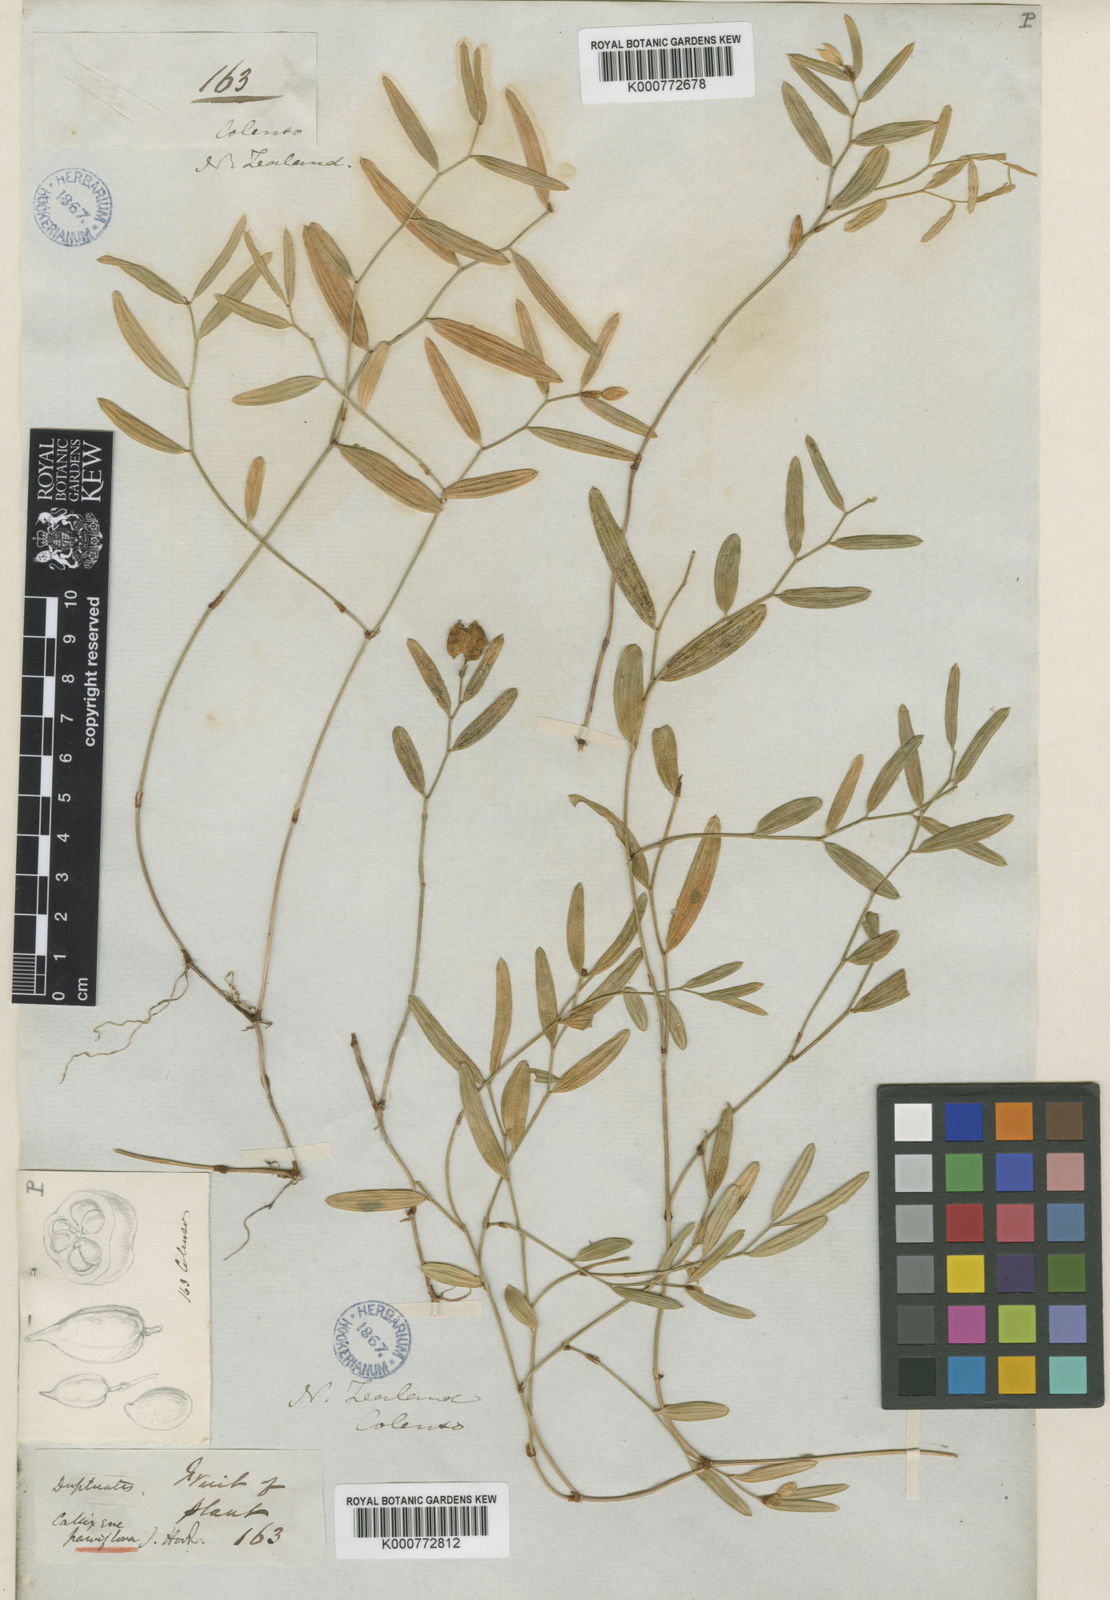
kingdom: Plantae
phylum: Tracheophyta
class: Liliopsida
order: Liliales
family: Alstroemeriaceae
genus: Luzuriaga
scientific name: Luzuriaga parviflora
